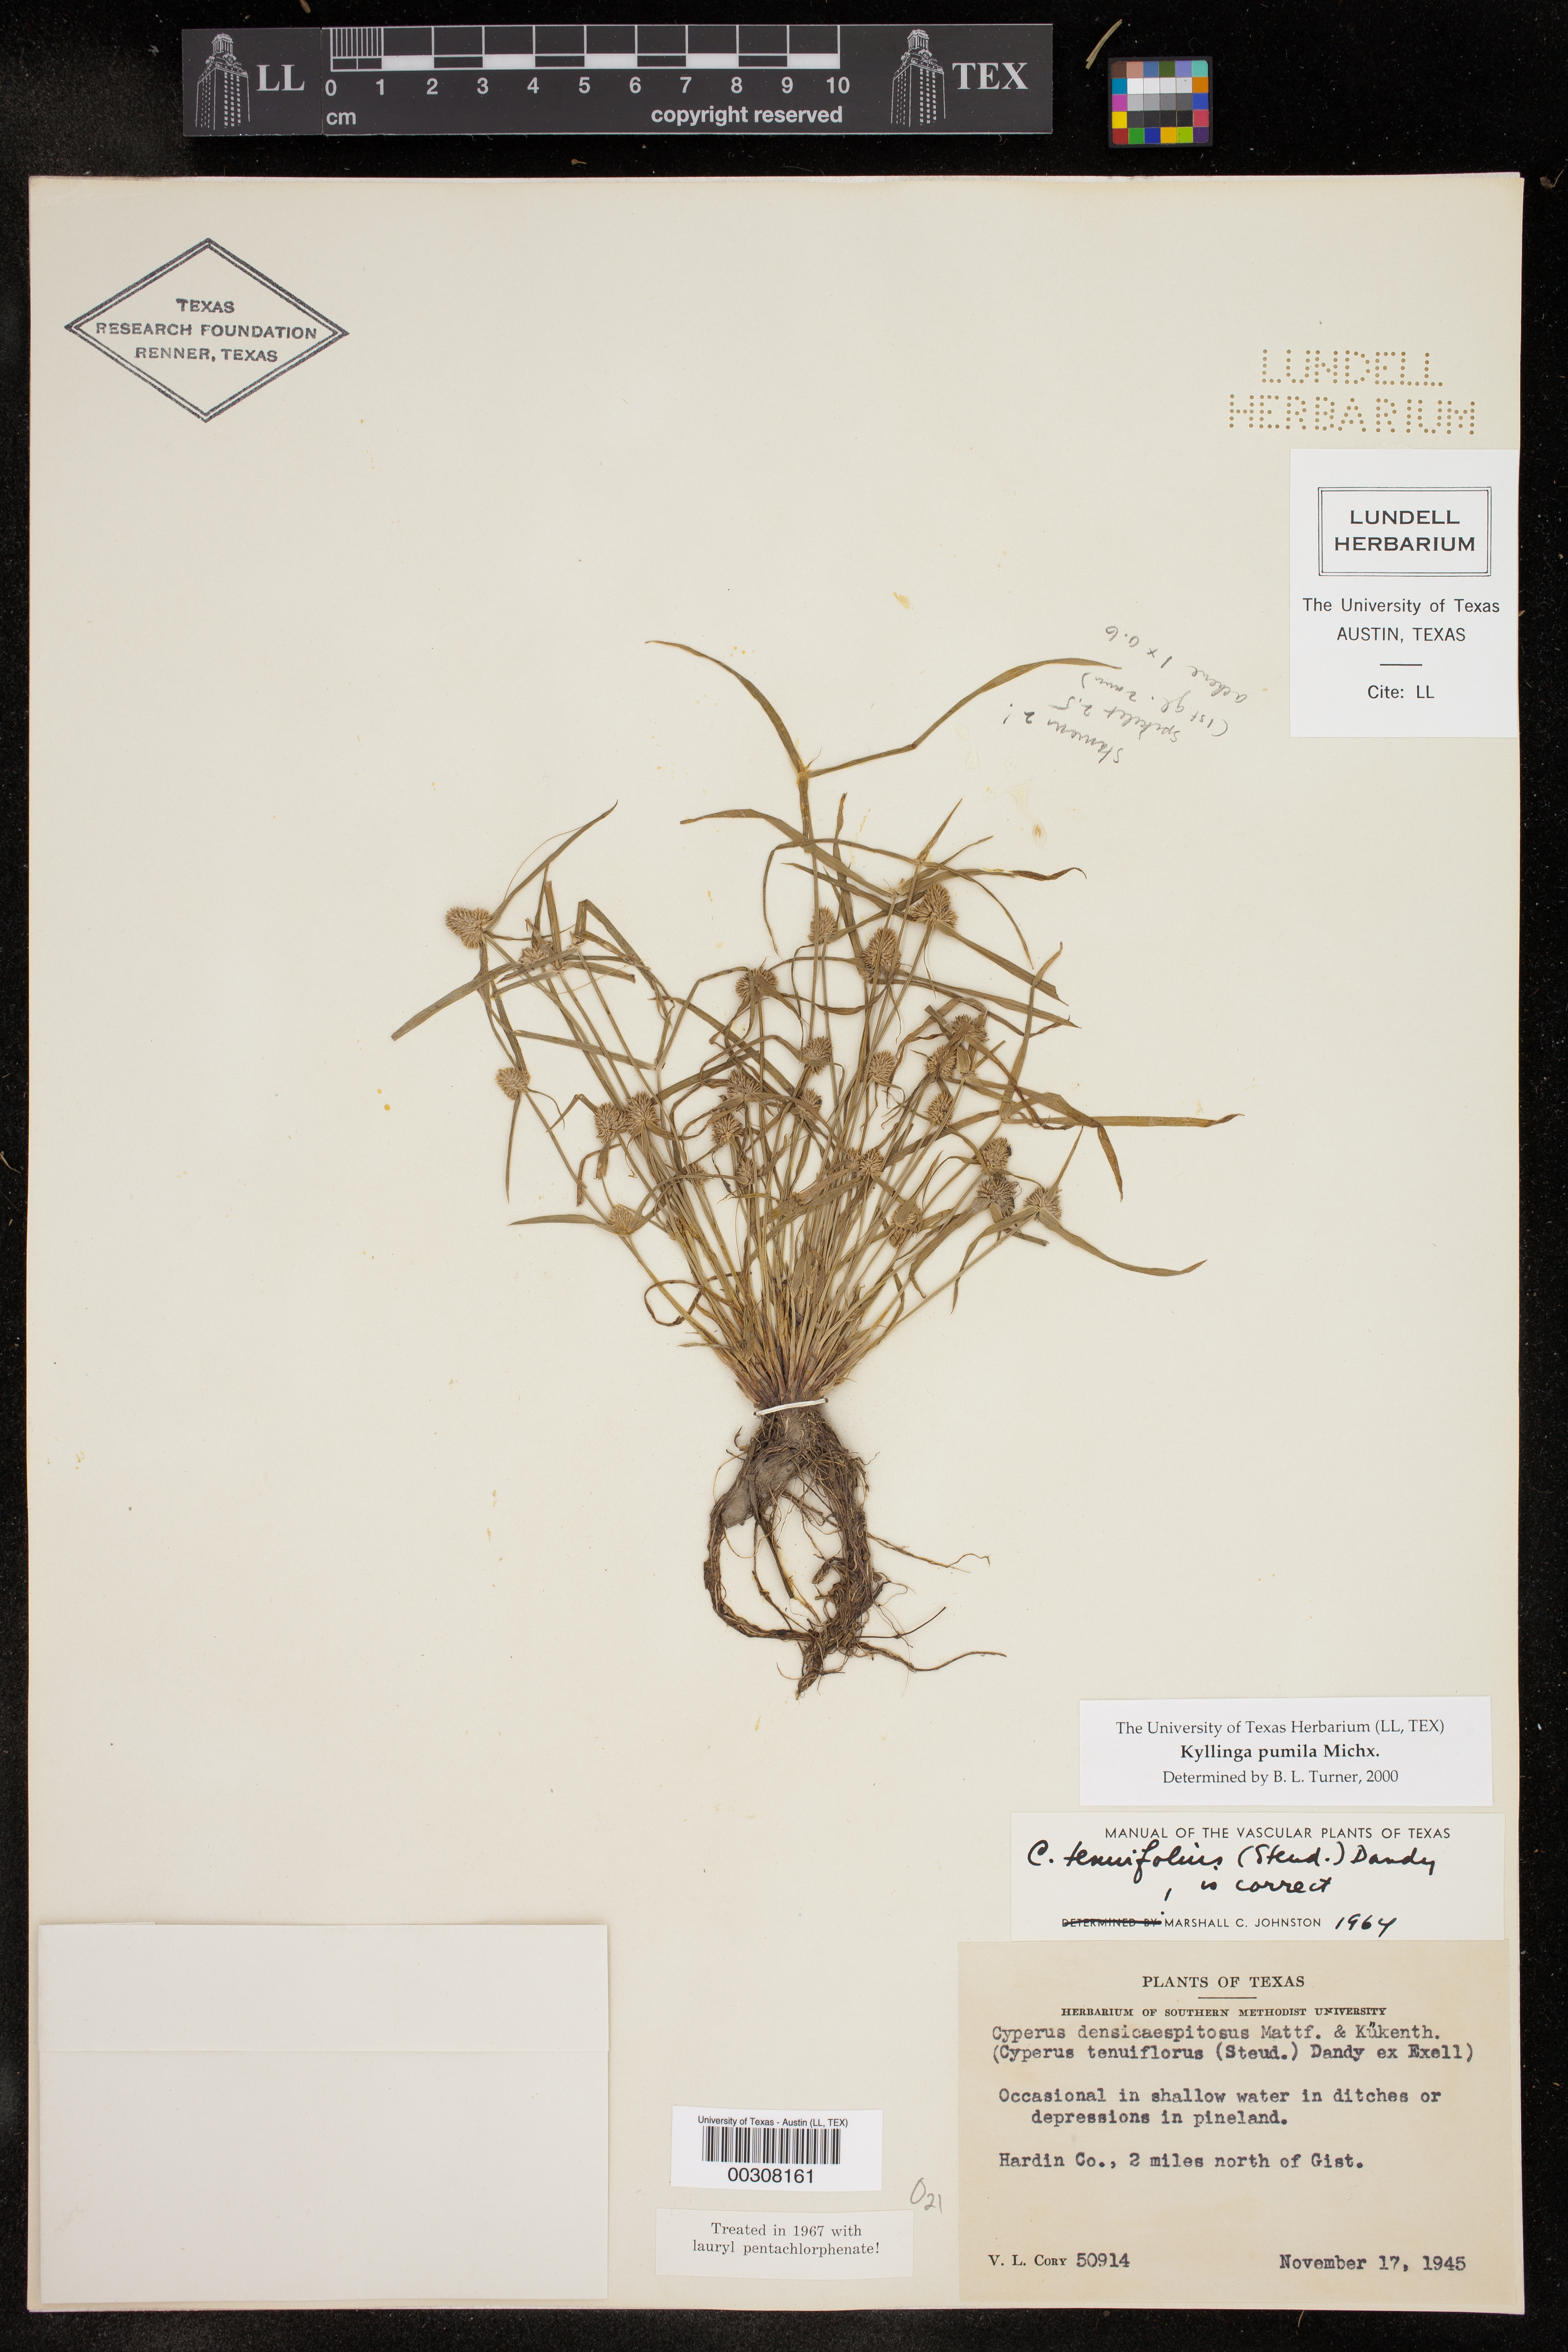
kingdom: Plantae
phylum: Tracheophyta
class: Liliopsida
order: Poales
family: Cyperaceae
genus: Cyperus
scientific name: Cyperus
